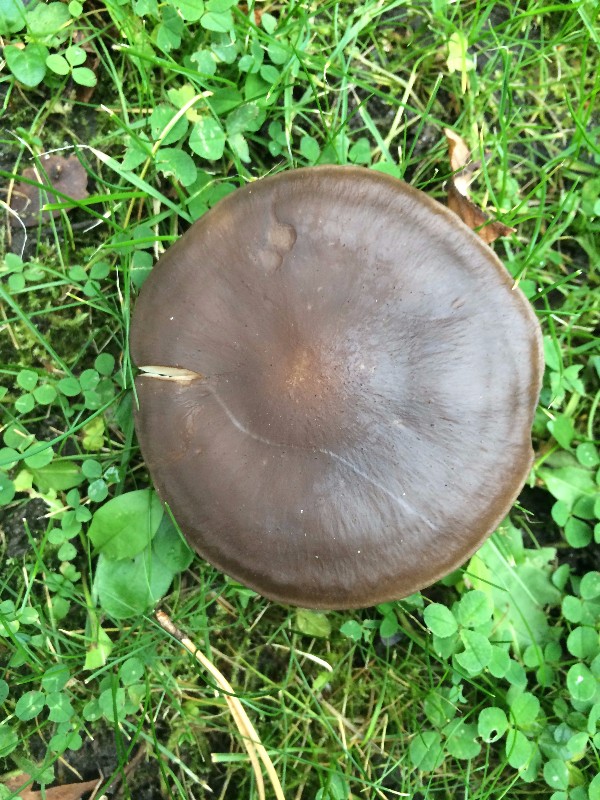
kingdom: Fungi
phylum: Basidiomycota
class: Agaricomycetes
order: Agaricales
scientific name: Agaricales
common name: champignonordenen
